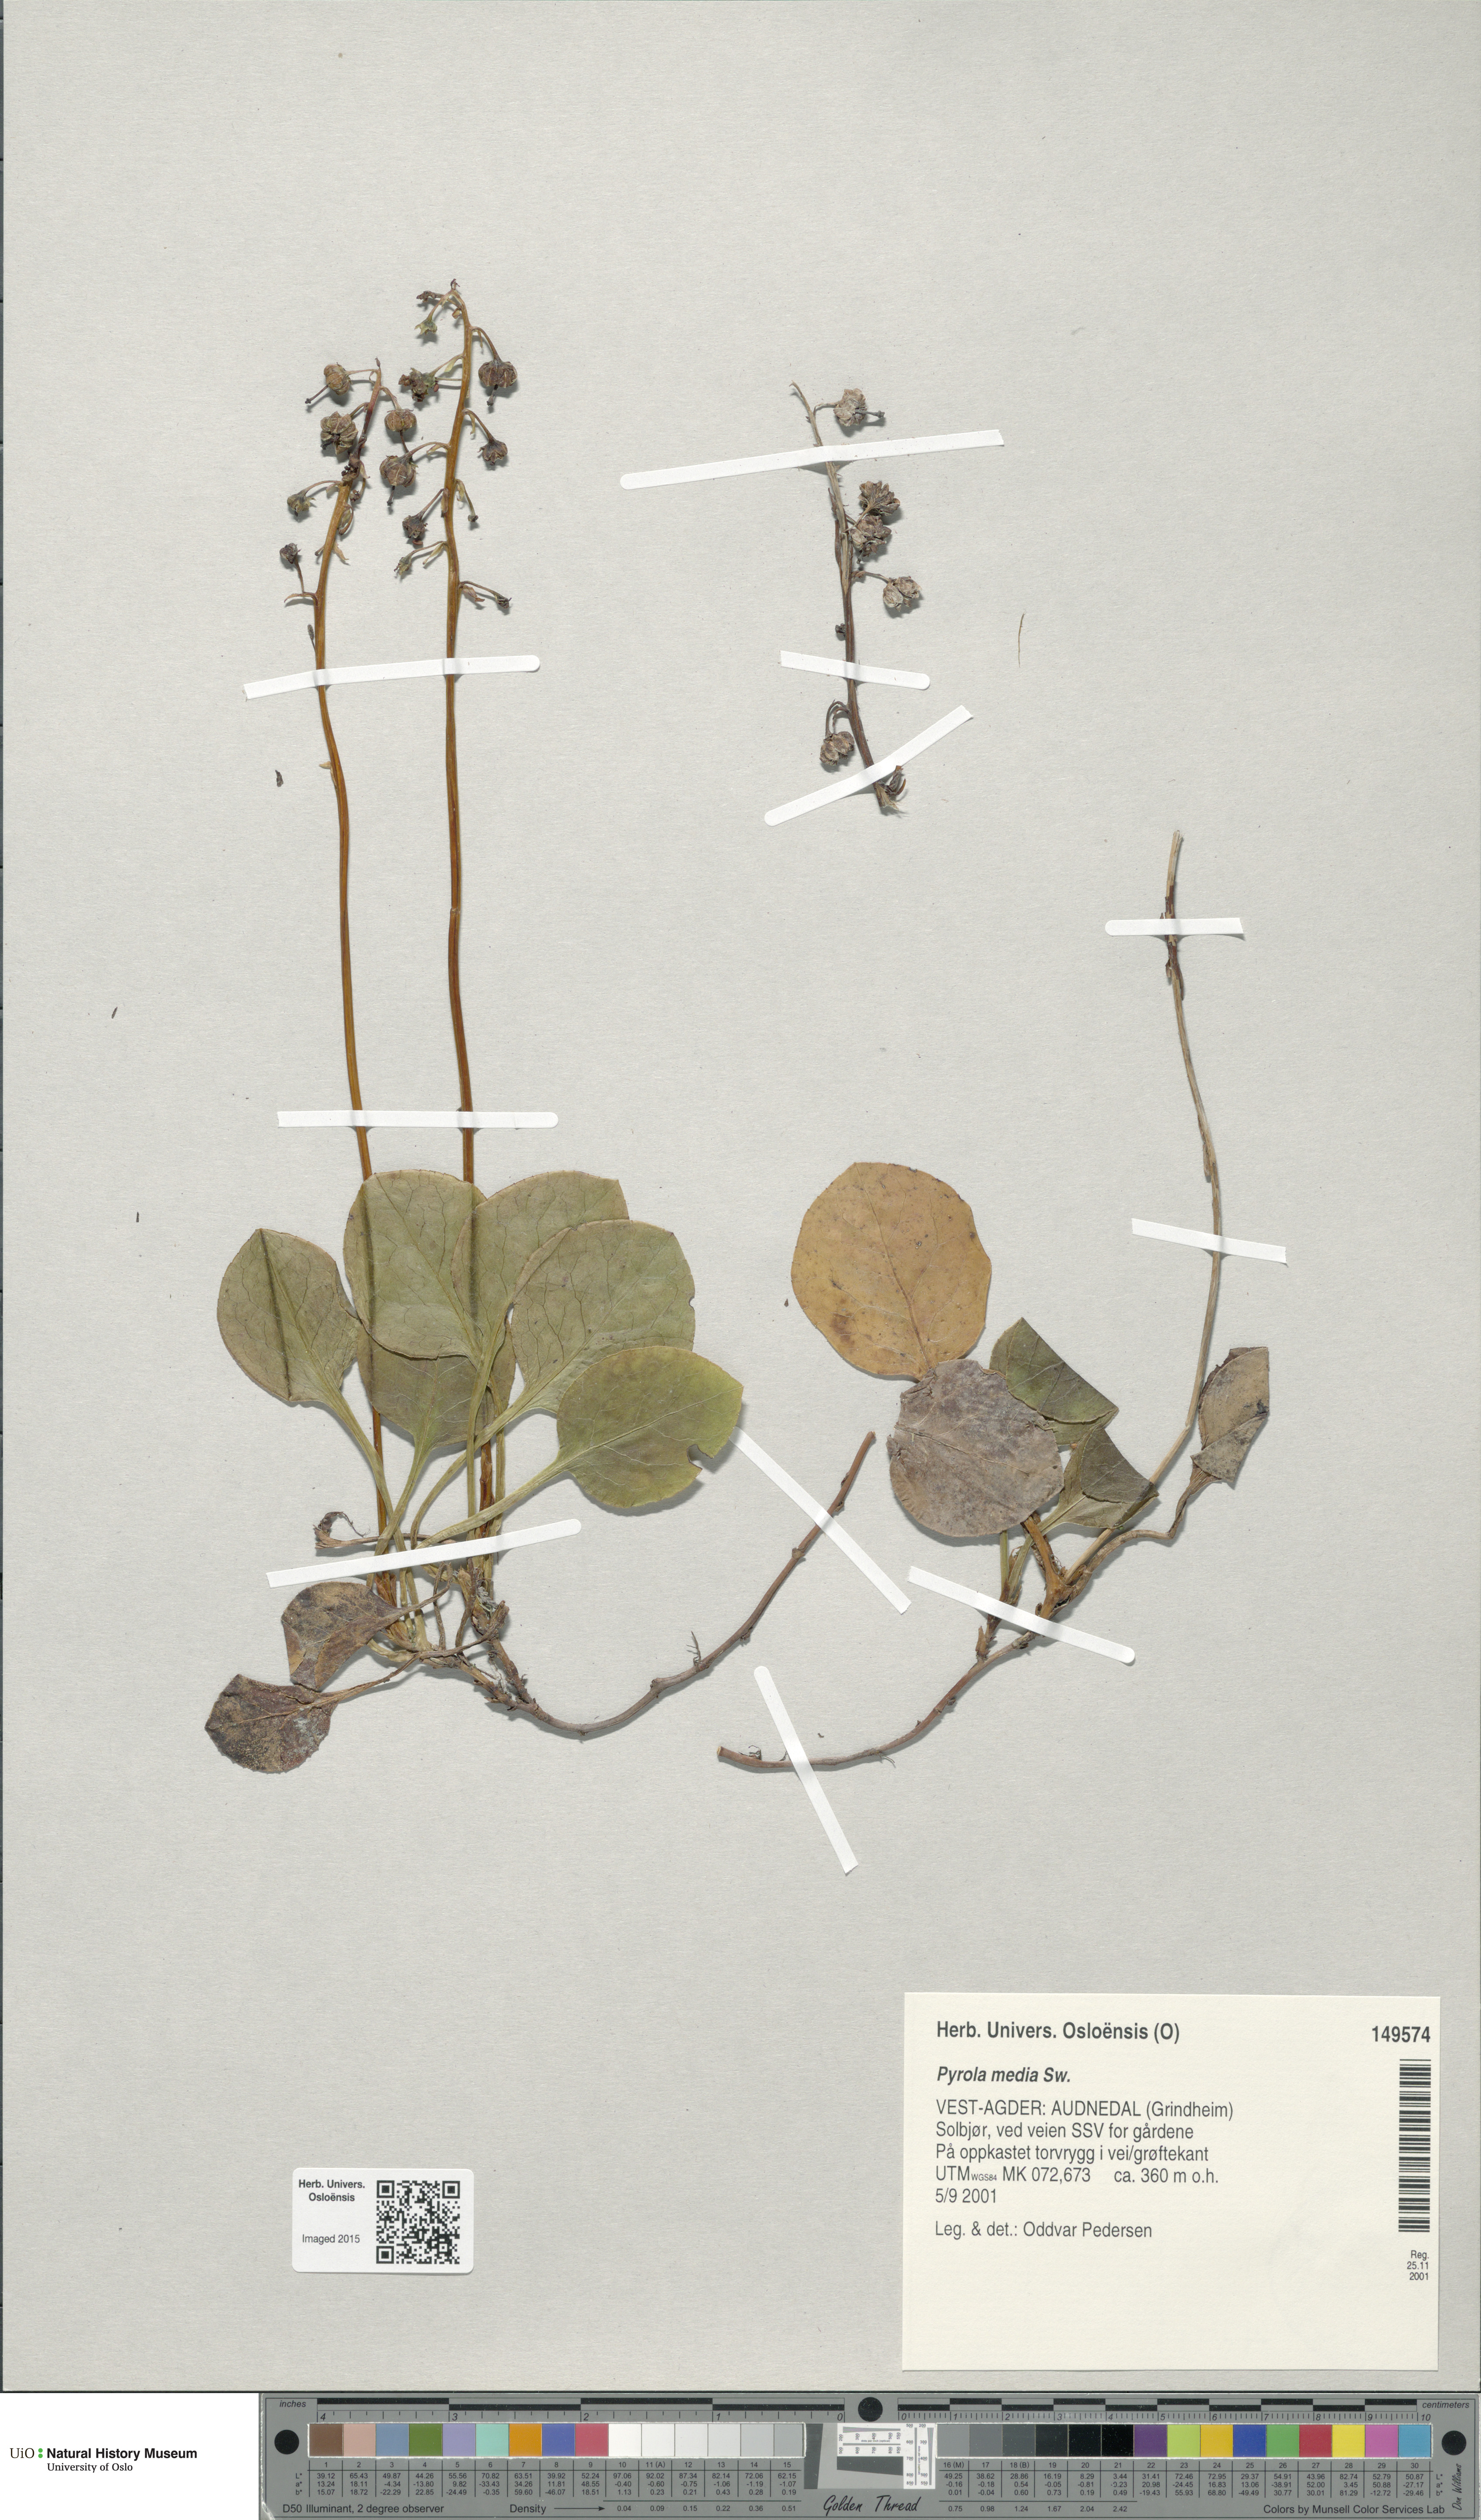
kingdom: Plantae
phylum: Tracheophyta
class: Magnoliopsida
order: Ericales
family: Ericaceae
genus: Pyrola
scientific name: Pyrola media
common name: Intermediate wintergreen
